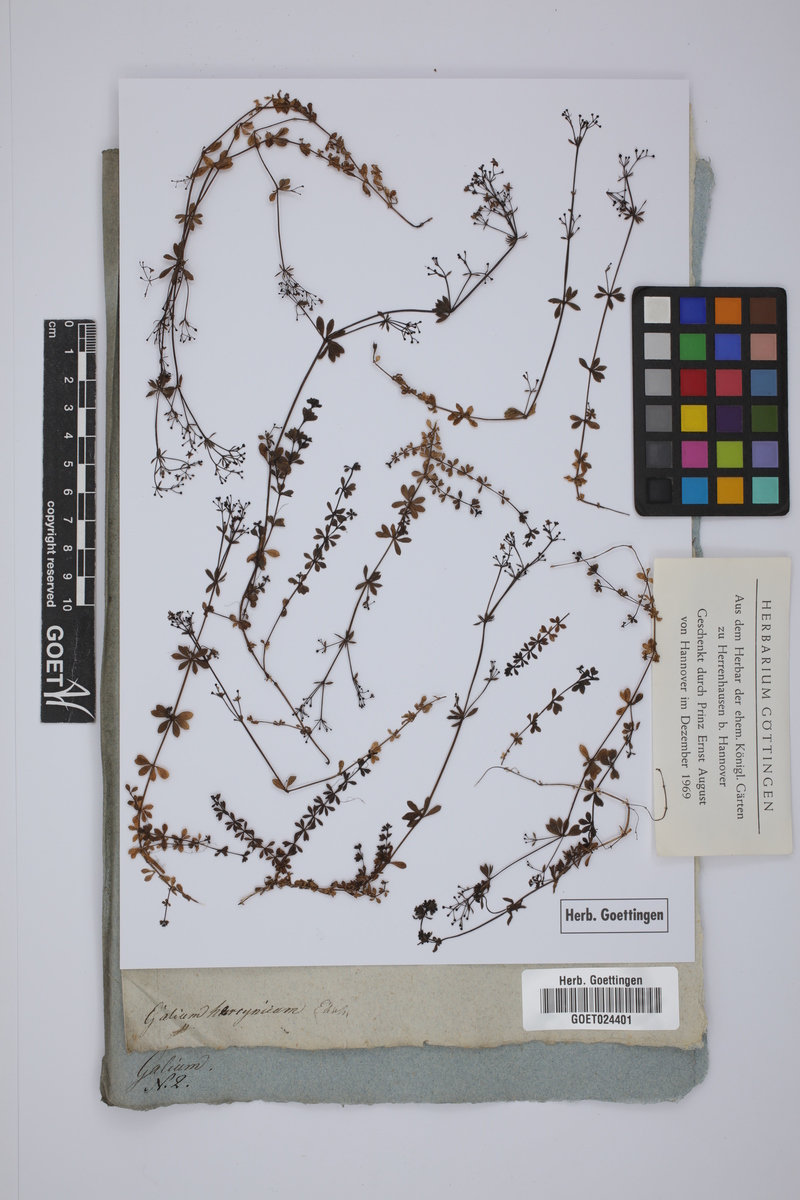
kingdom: Plantae
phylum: Tracheophyta
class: Magnoliopsida
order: Gentianales
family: Rubiaceae
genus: Galium
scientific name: Galium saxatile
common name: Heath bedstraw
